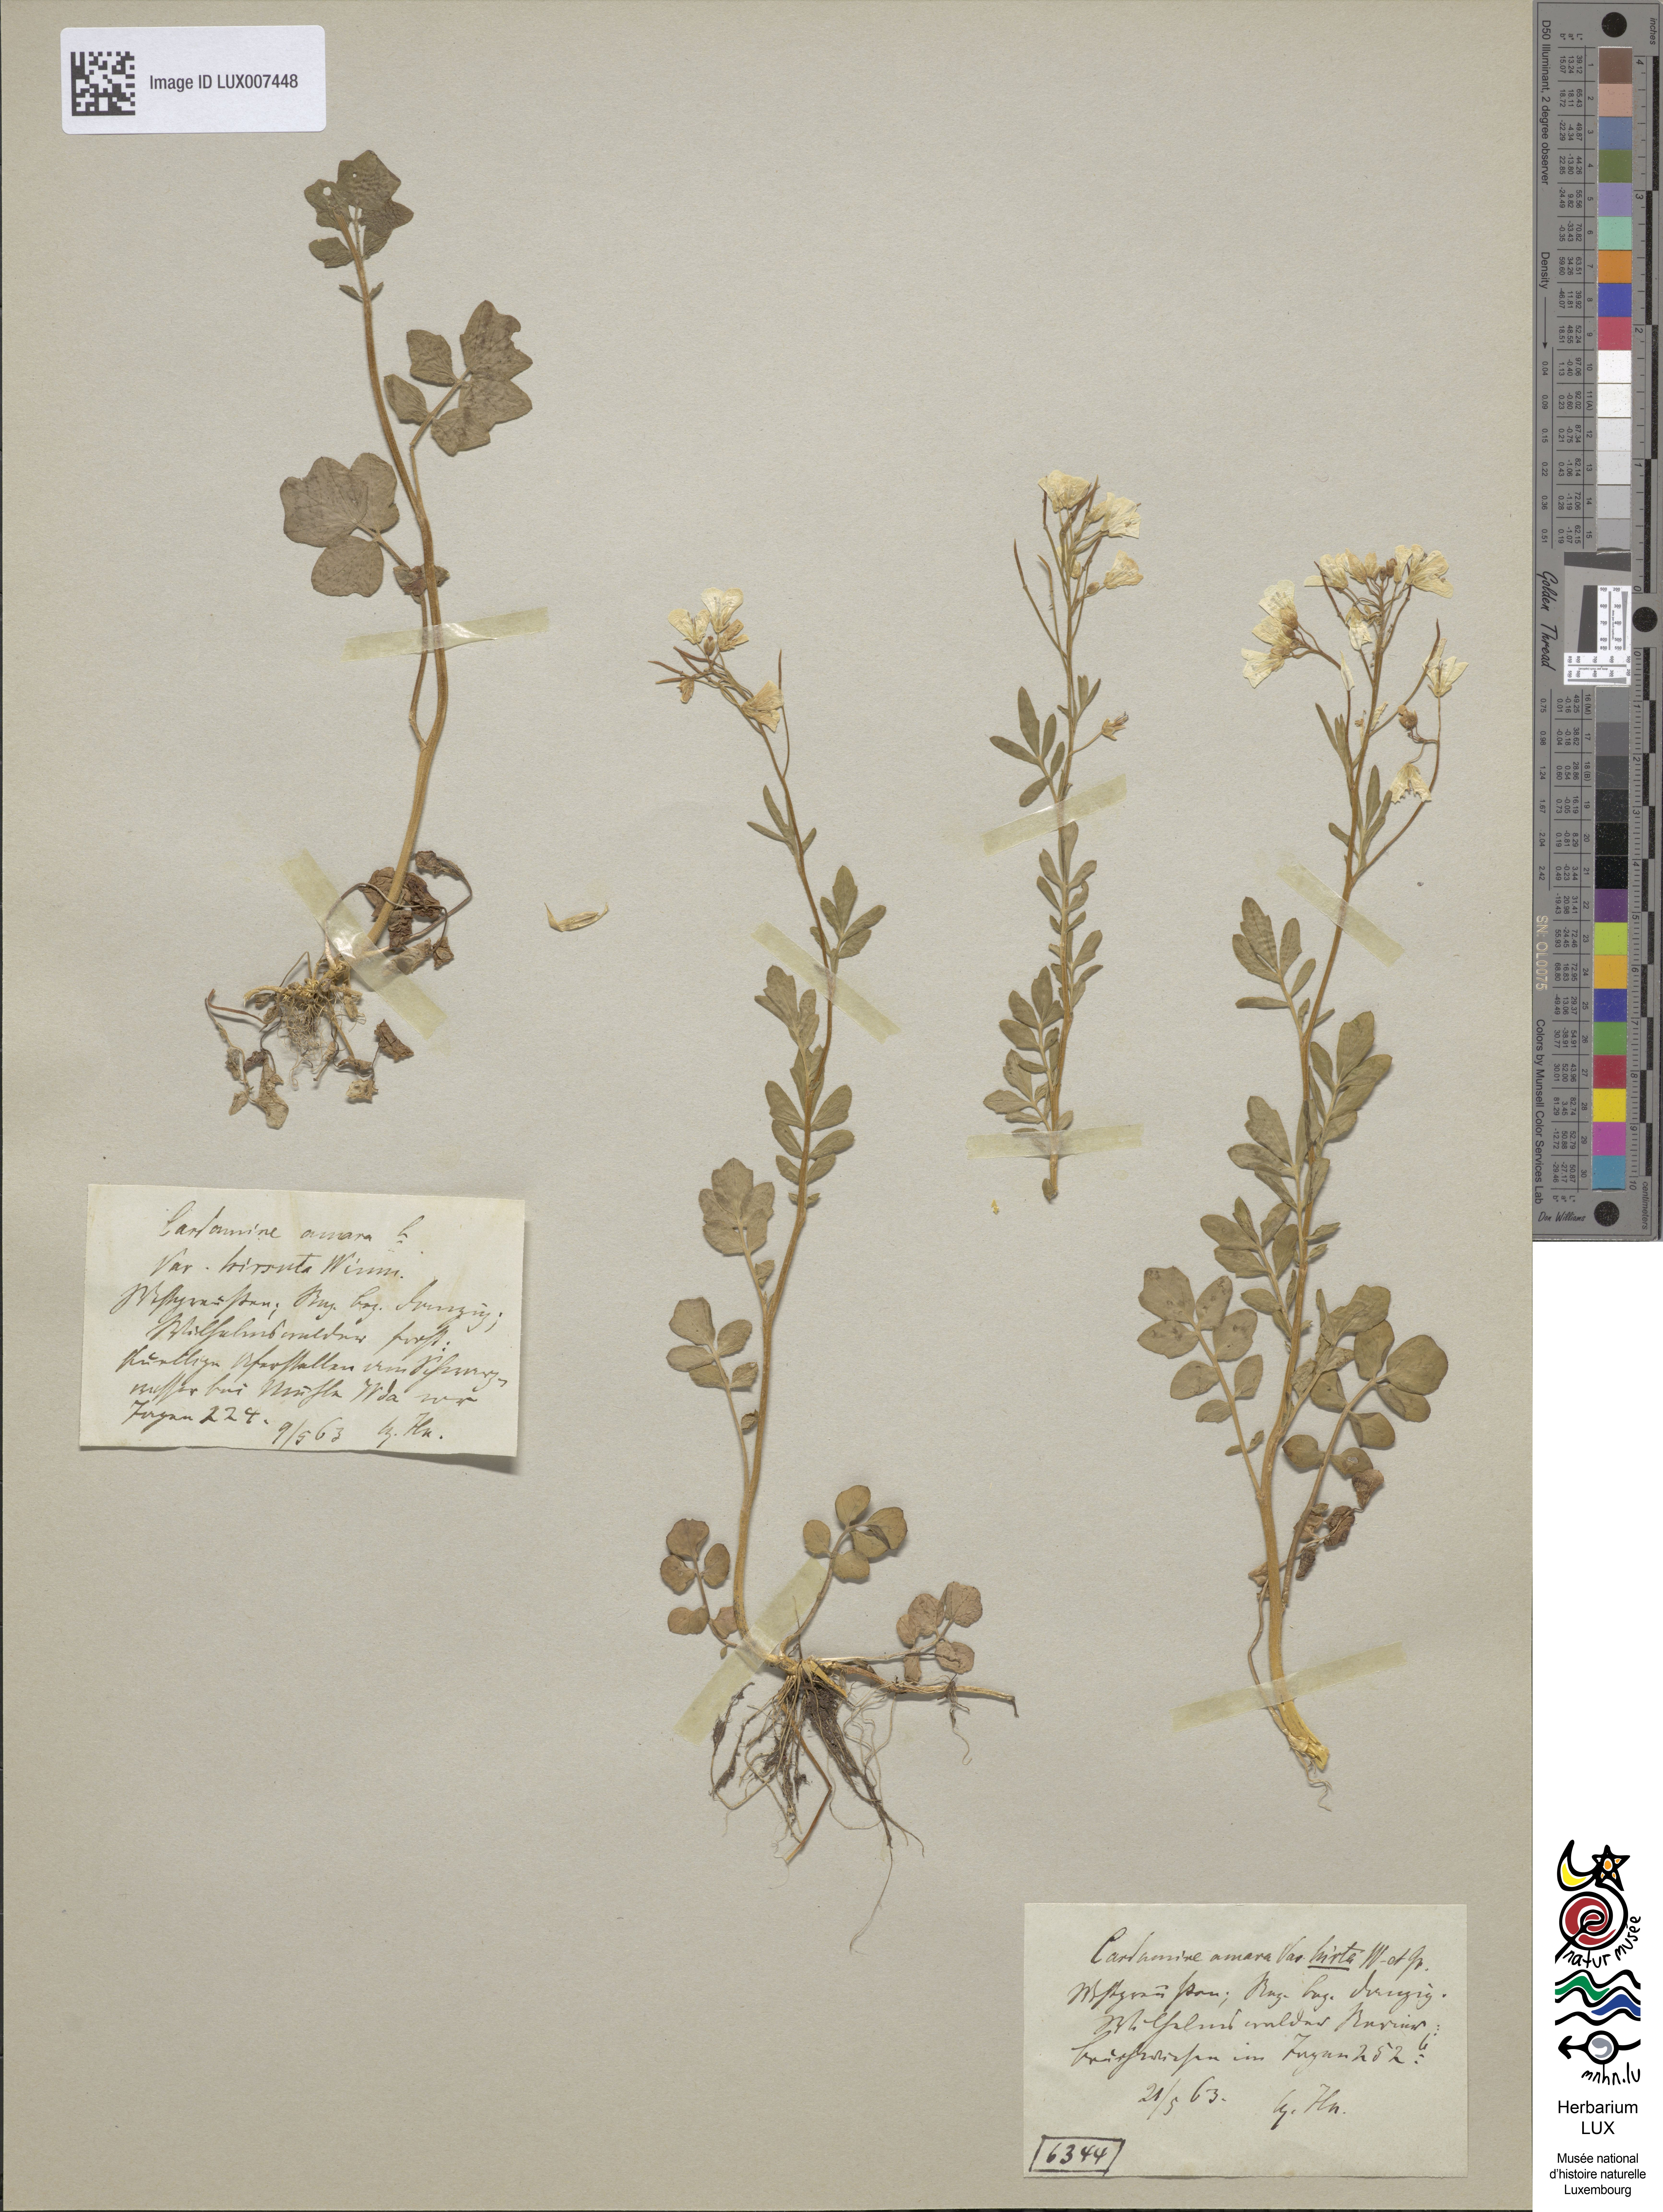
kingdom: Plantae
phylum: Tracheophyta
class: Magnoliopsida
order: Brassicales
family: Brassicaceae
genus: Cardamine
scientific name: Cardamine amara
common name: Large bitter-cress
